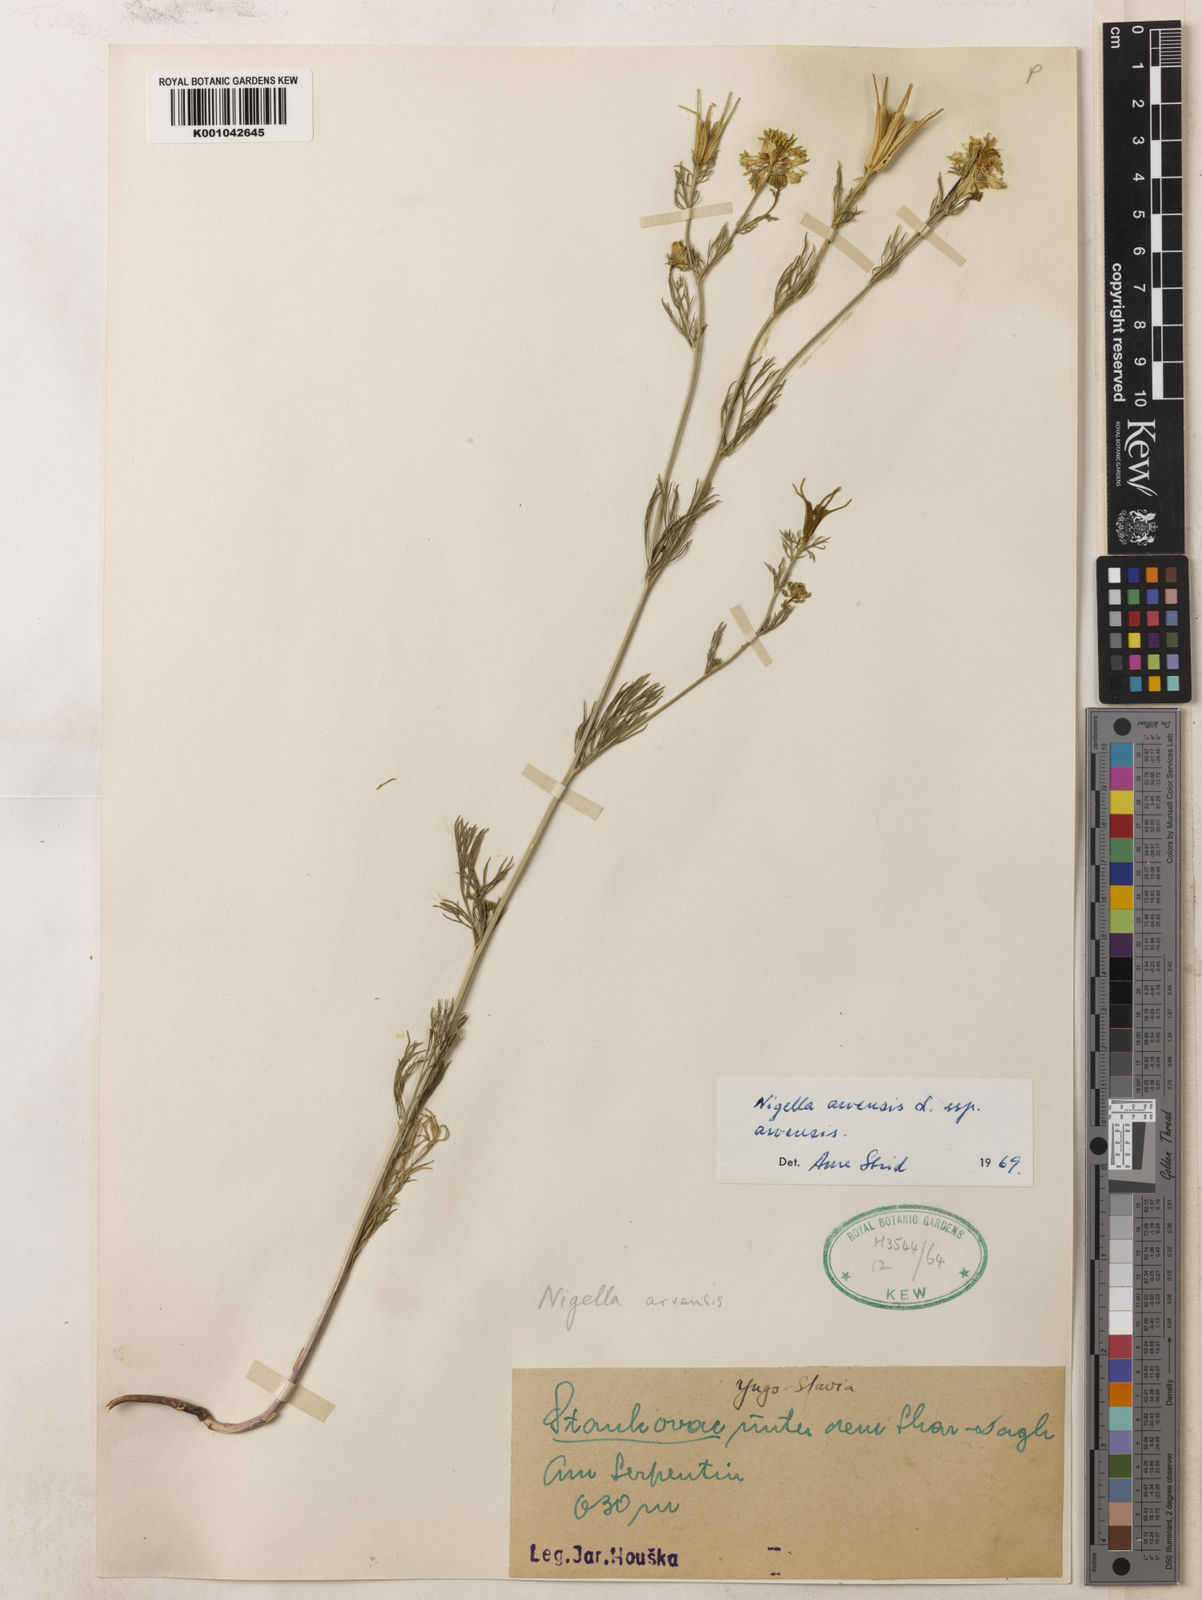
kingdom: Plantae
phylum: Tracheophyta
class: Magnoliopsida
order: Ranunculales
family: Ranunculaceae
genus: Nigella
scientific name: Nigella arvensis
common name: Wild fennel-flower
